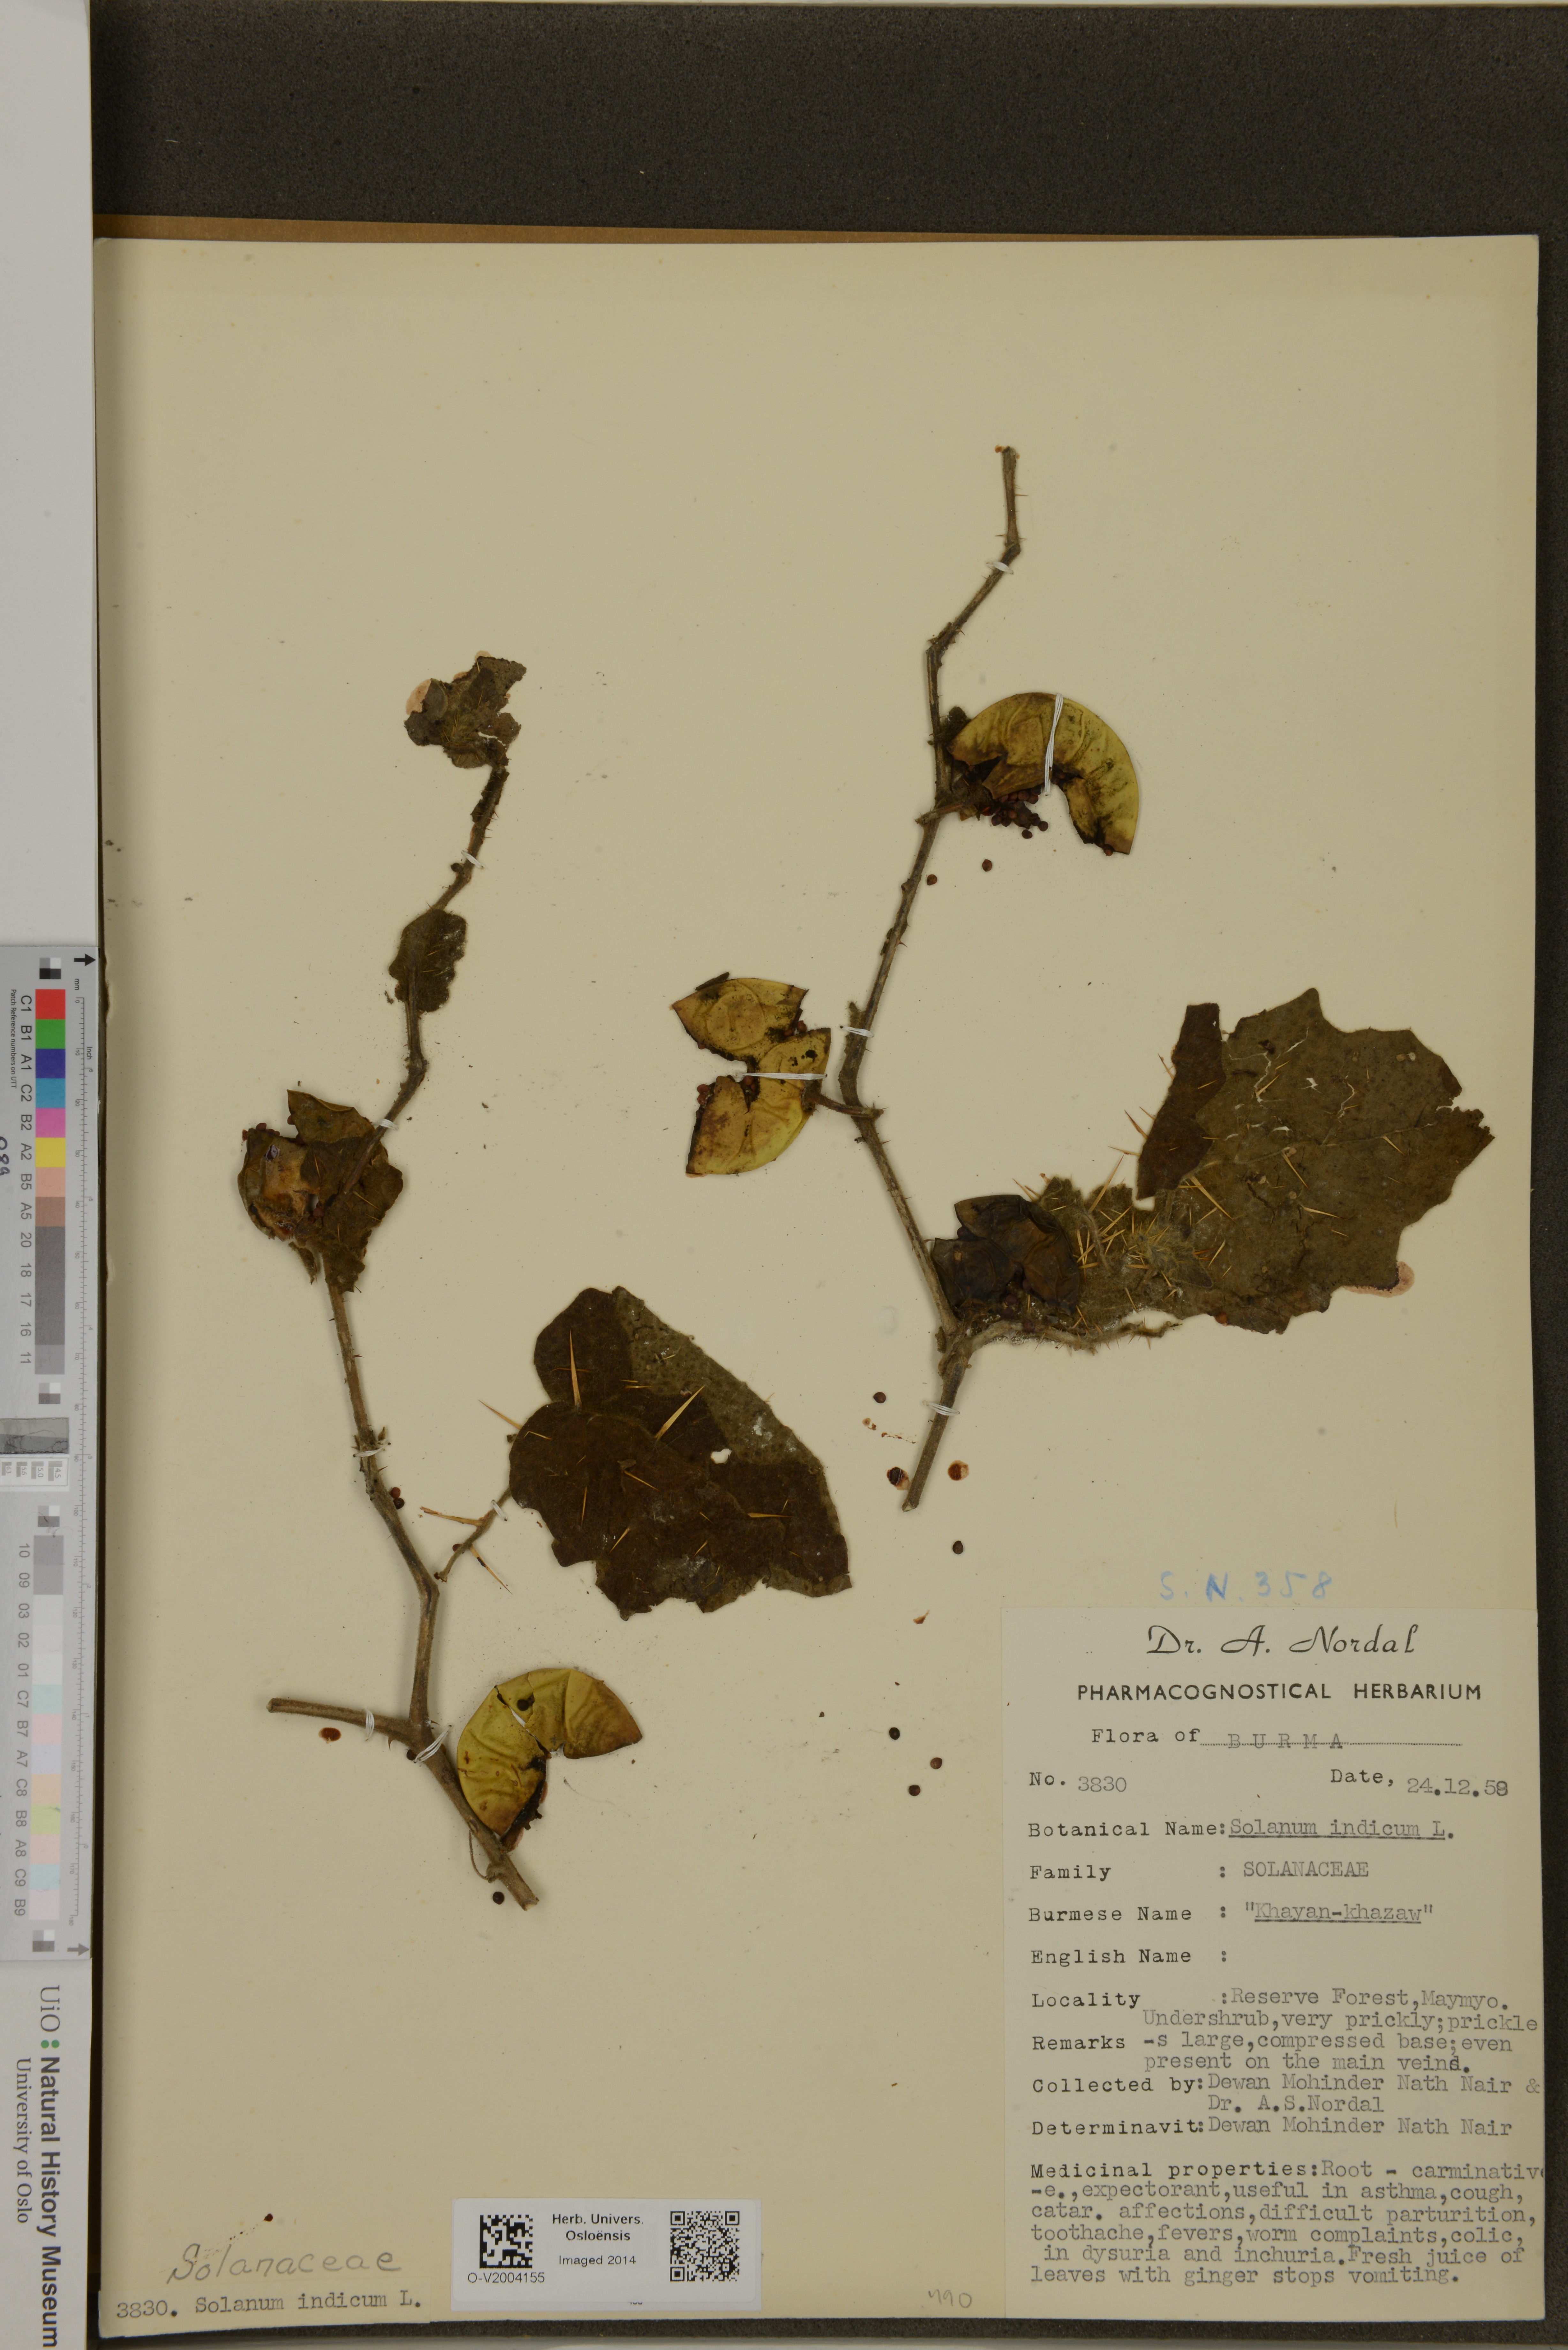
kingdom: Plantae
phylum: Tracheophyta
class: Magnoliopsida
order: Solanales
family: Solanaceae
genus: Solanum
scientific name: Solanum violaceum
